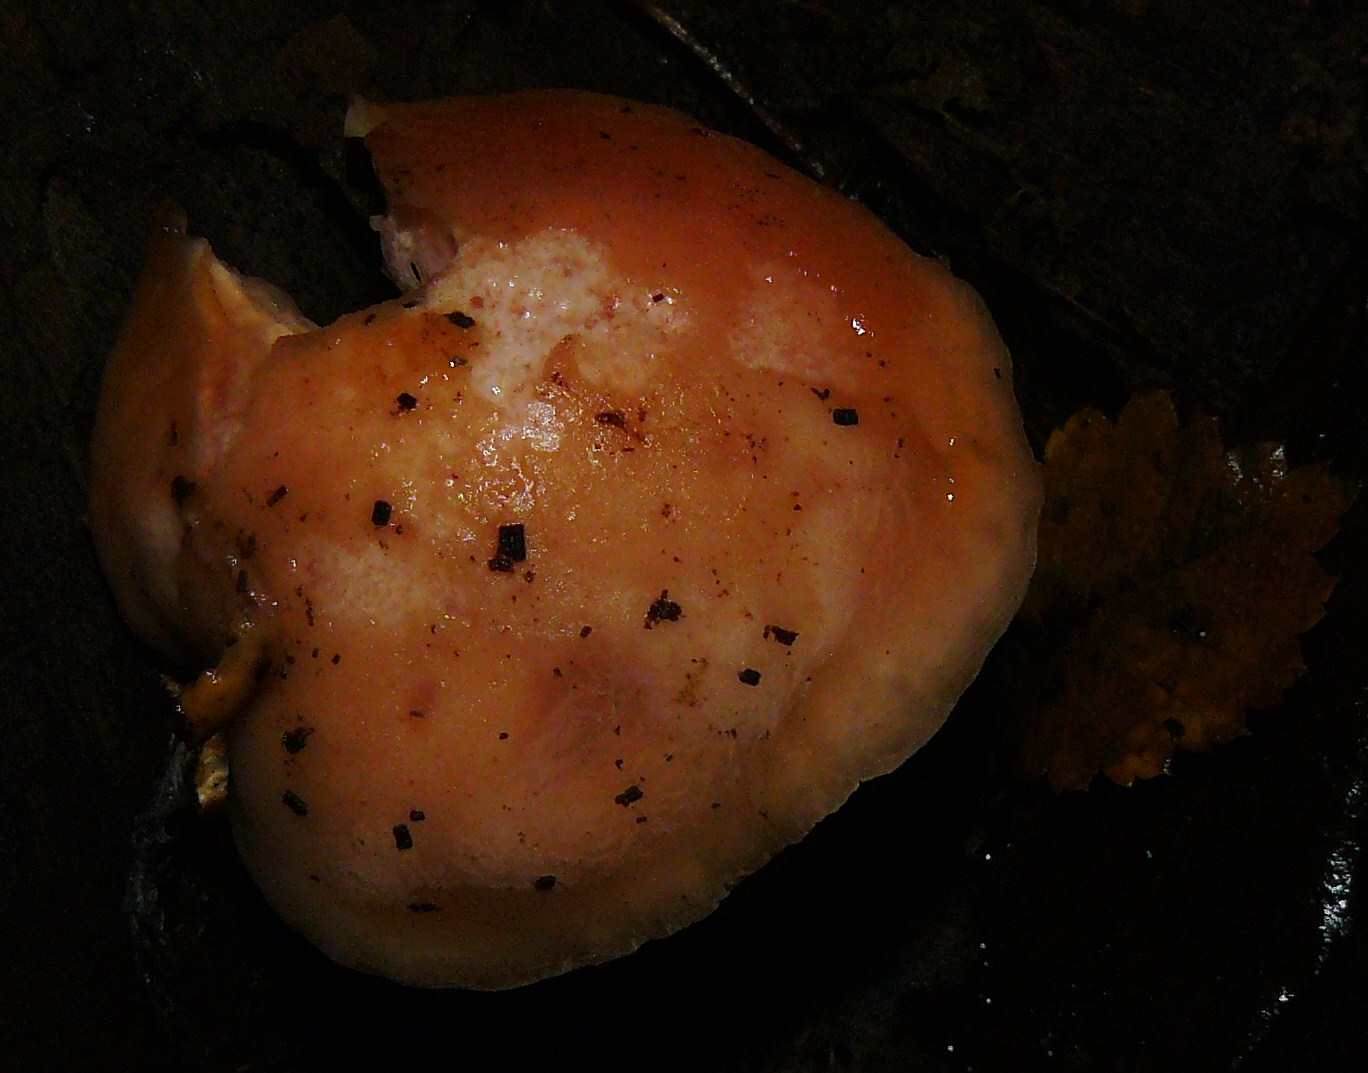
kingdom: Fungi
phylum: Basidiomycota
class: Agaricomycetes
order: Agaricales
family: Physalacriaceae
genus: Rhodotus
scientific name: Rhodotus palmatus
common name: ferskenhat
